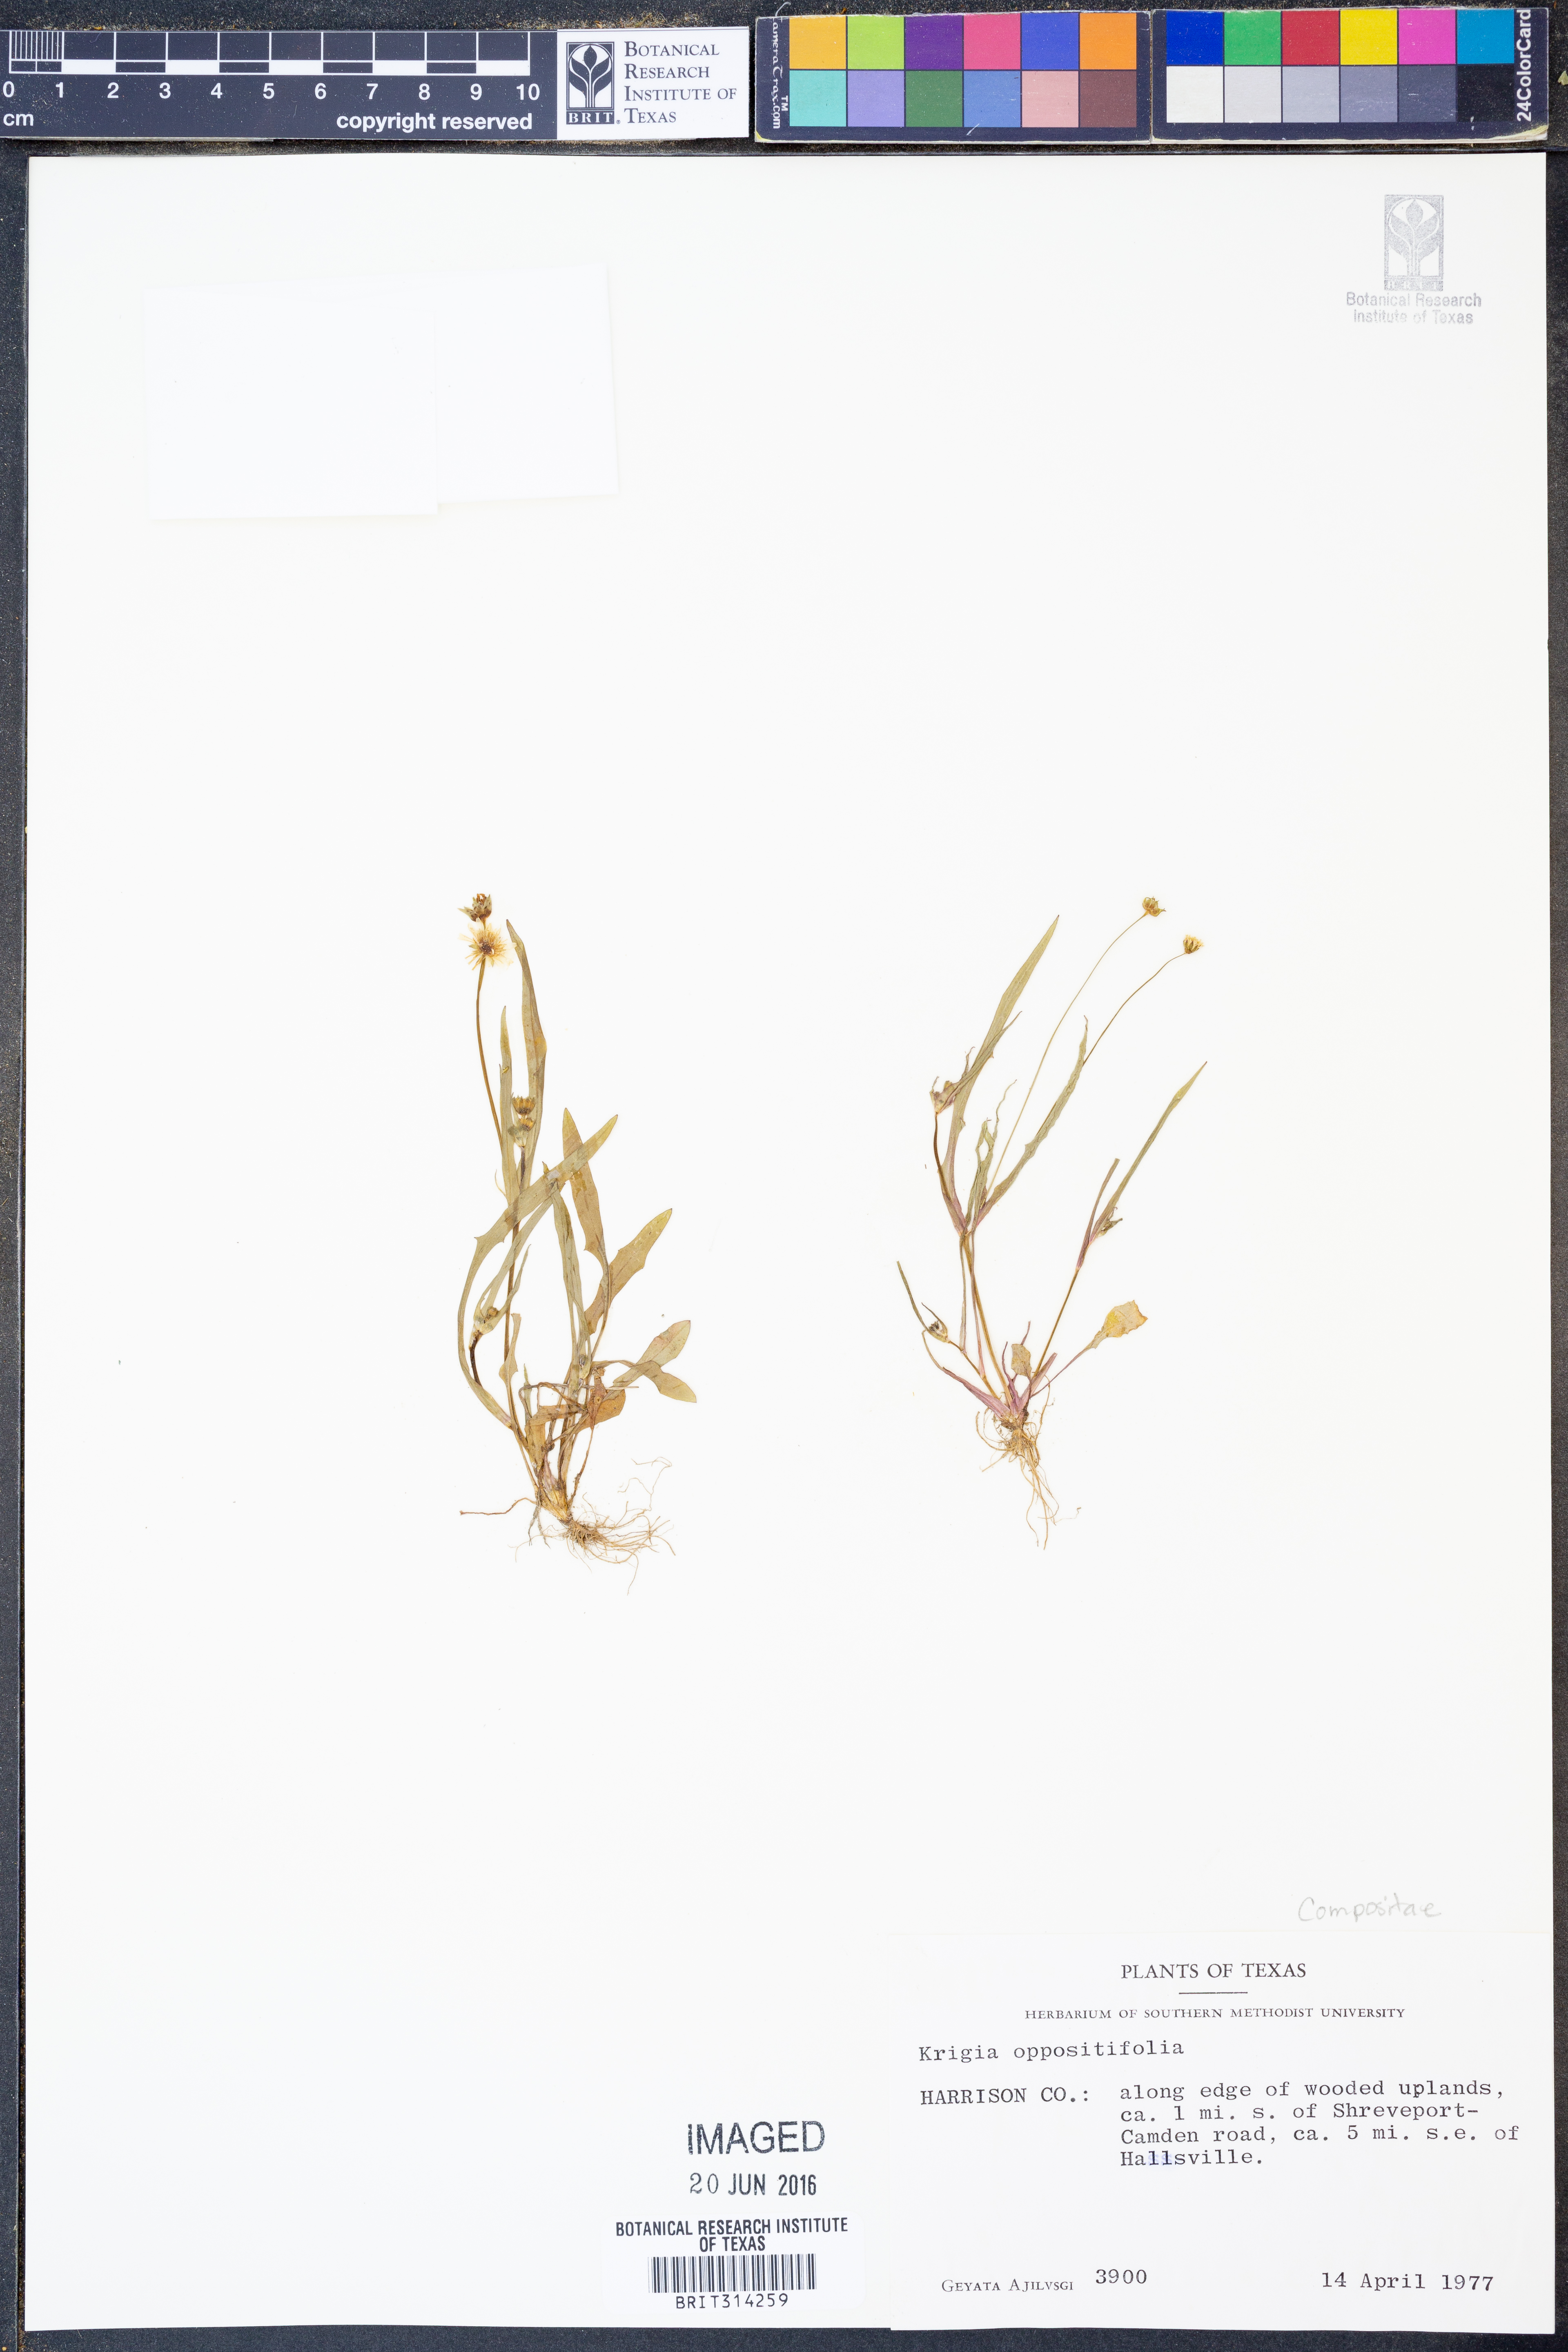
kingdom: Plantae
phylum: Tracheophyta
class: Magnoliopsida
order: Asterales
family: Asteraceae
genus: Krigia
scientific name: Krigia cespitosa
